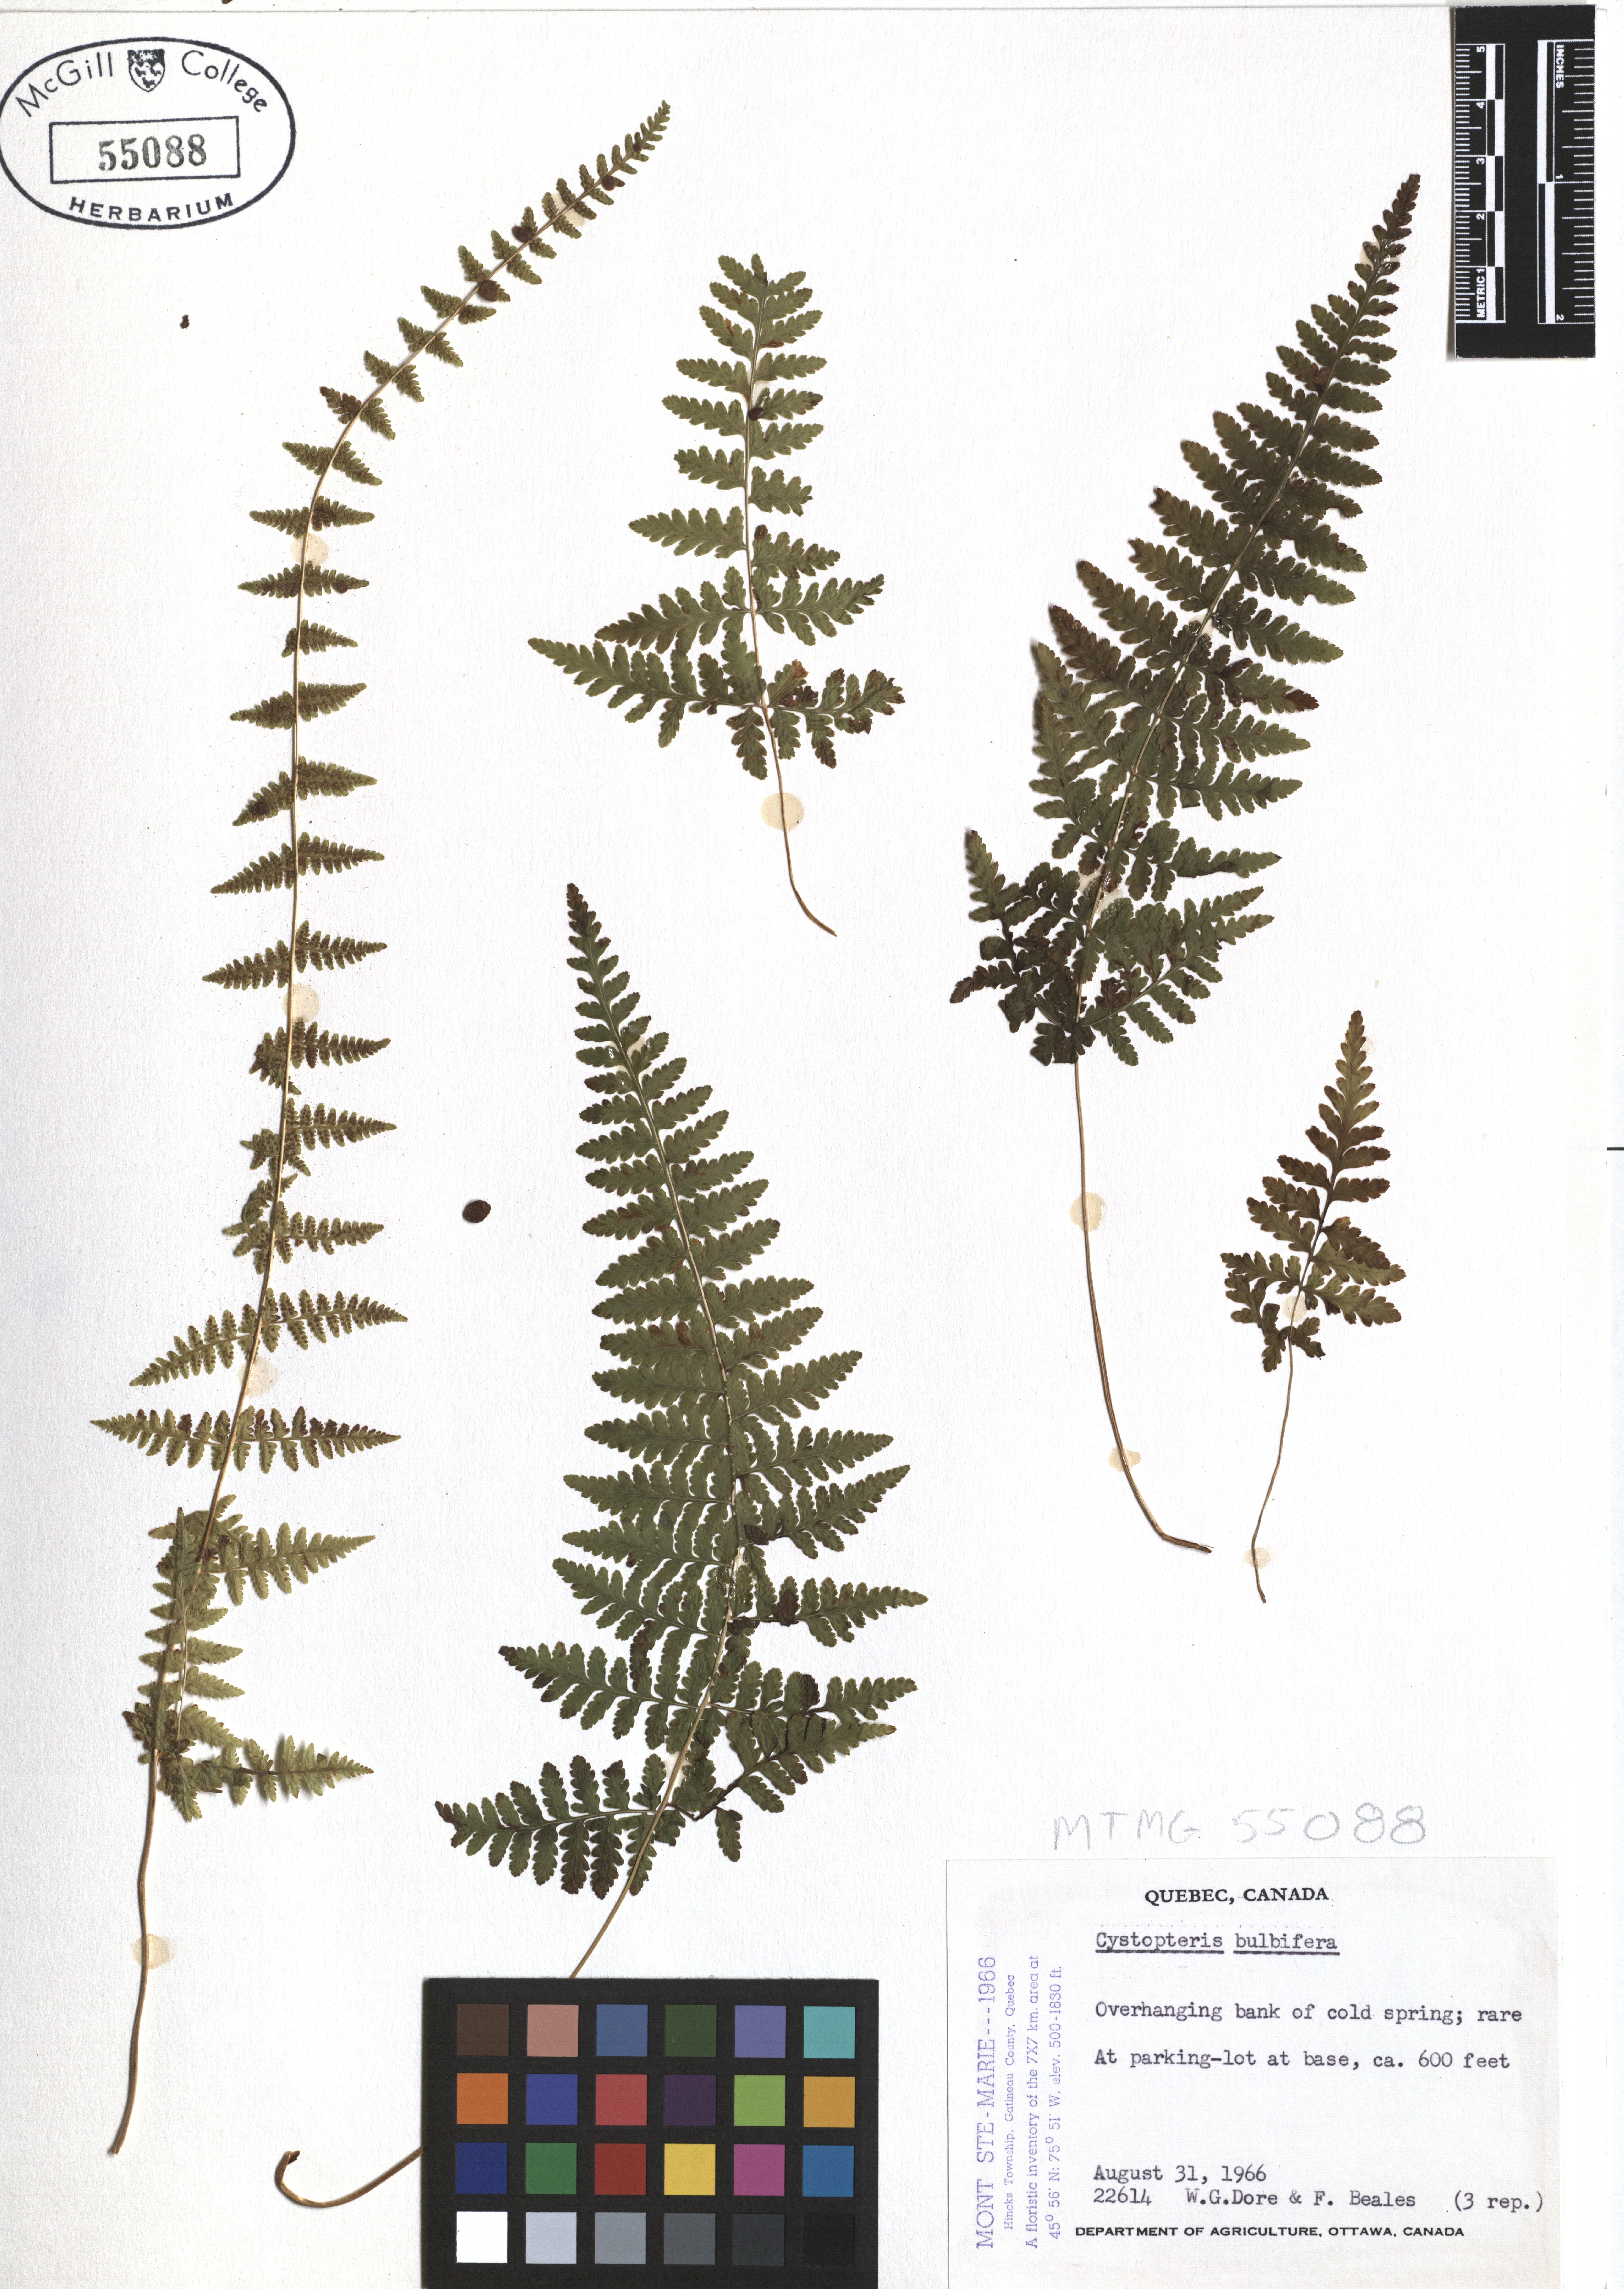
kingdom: Plantae
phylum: Tracheophyta
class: Polypodiopsida
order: Polypodiales
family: Cystopteridaceae
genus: Cystopteris
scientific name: Cystopteris bulbifera
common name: Bulblet bladder fern
